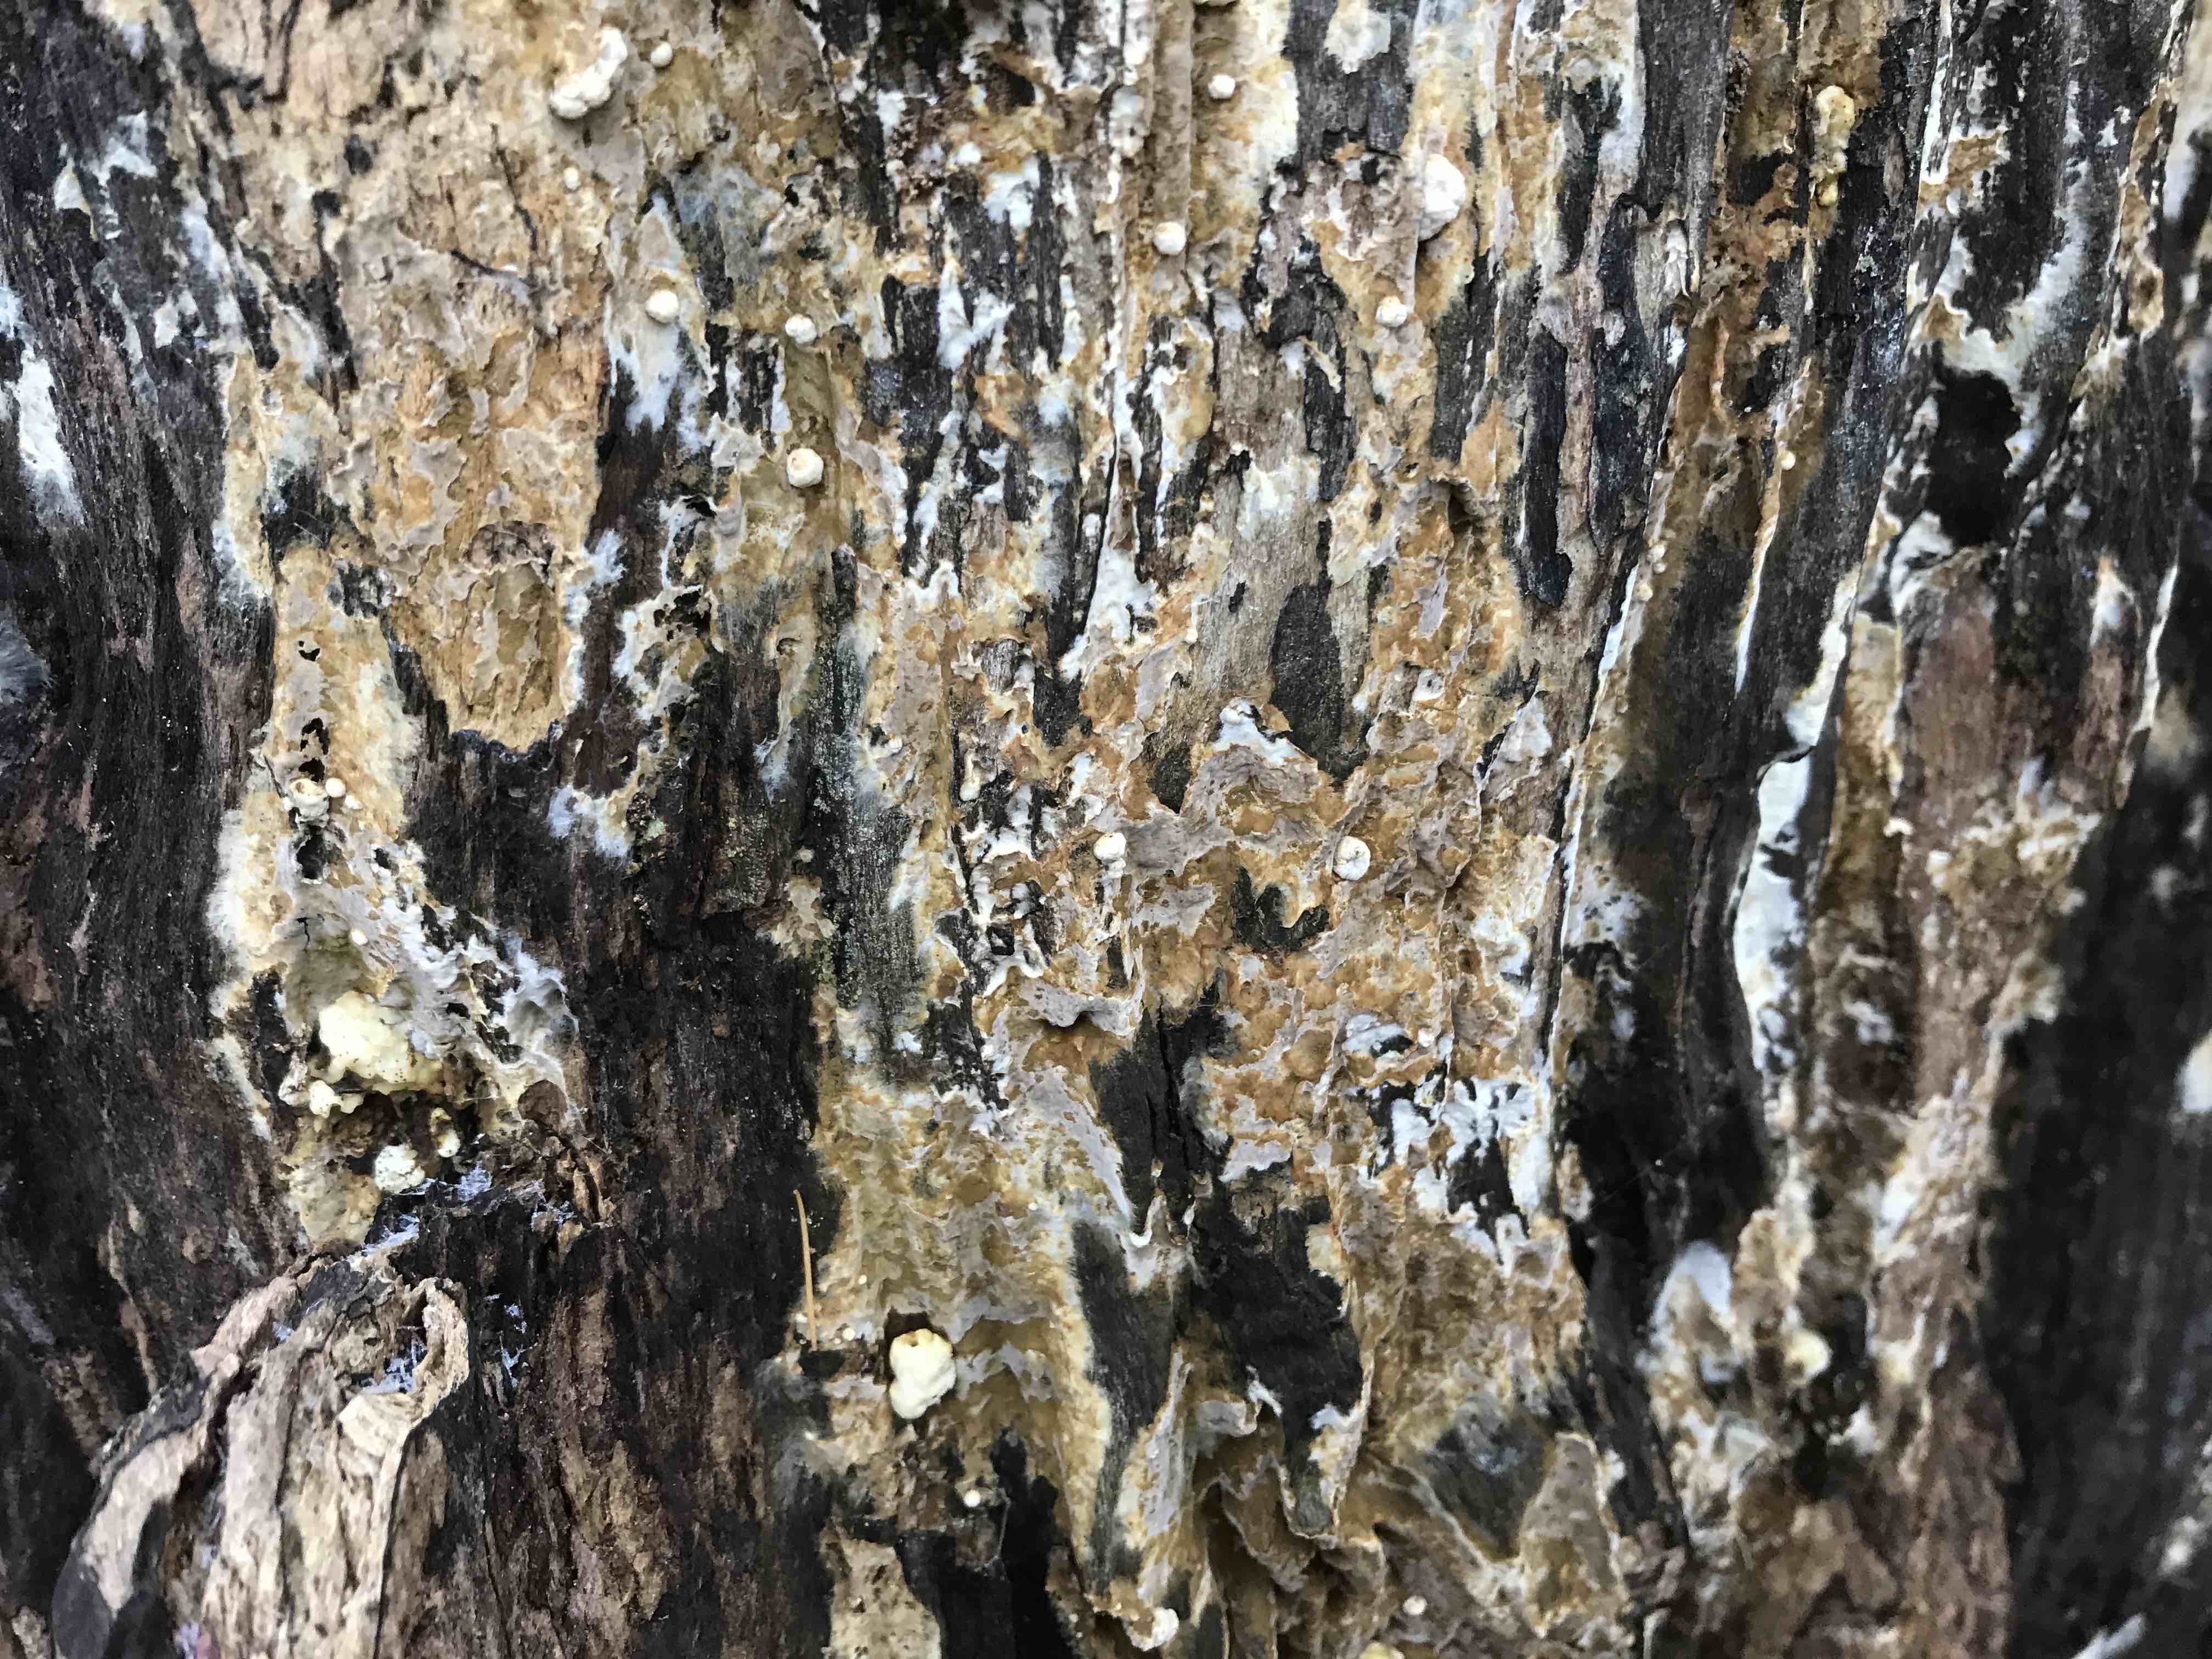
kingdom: Fungi
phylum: Basidiomycota
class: Agaricomycetes
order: Boletales
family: Coniophoraceae
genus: Coniophora
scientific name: Coniophora puteana
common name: gul tømmersvamp
